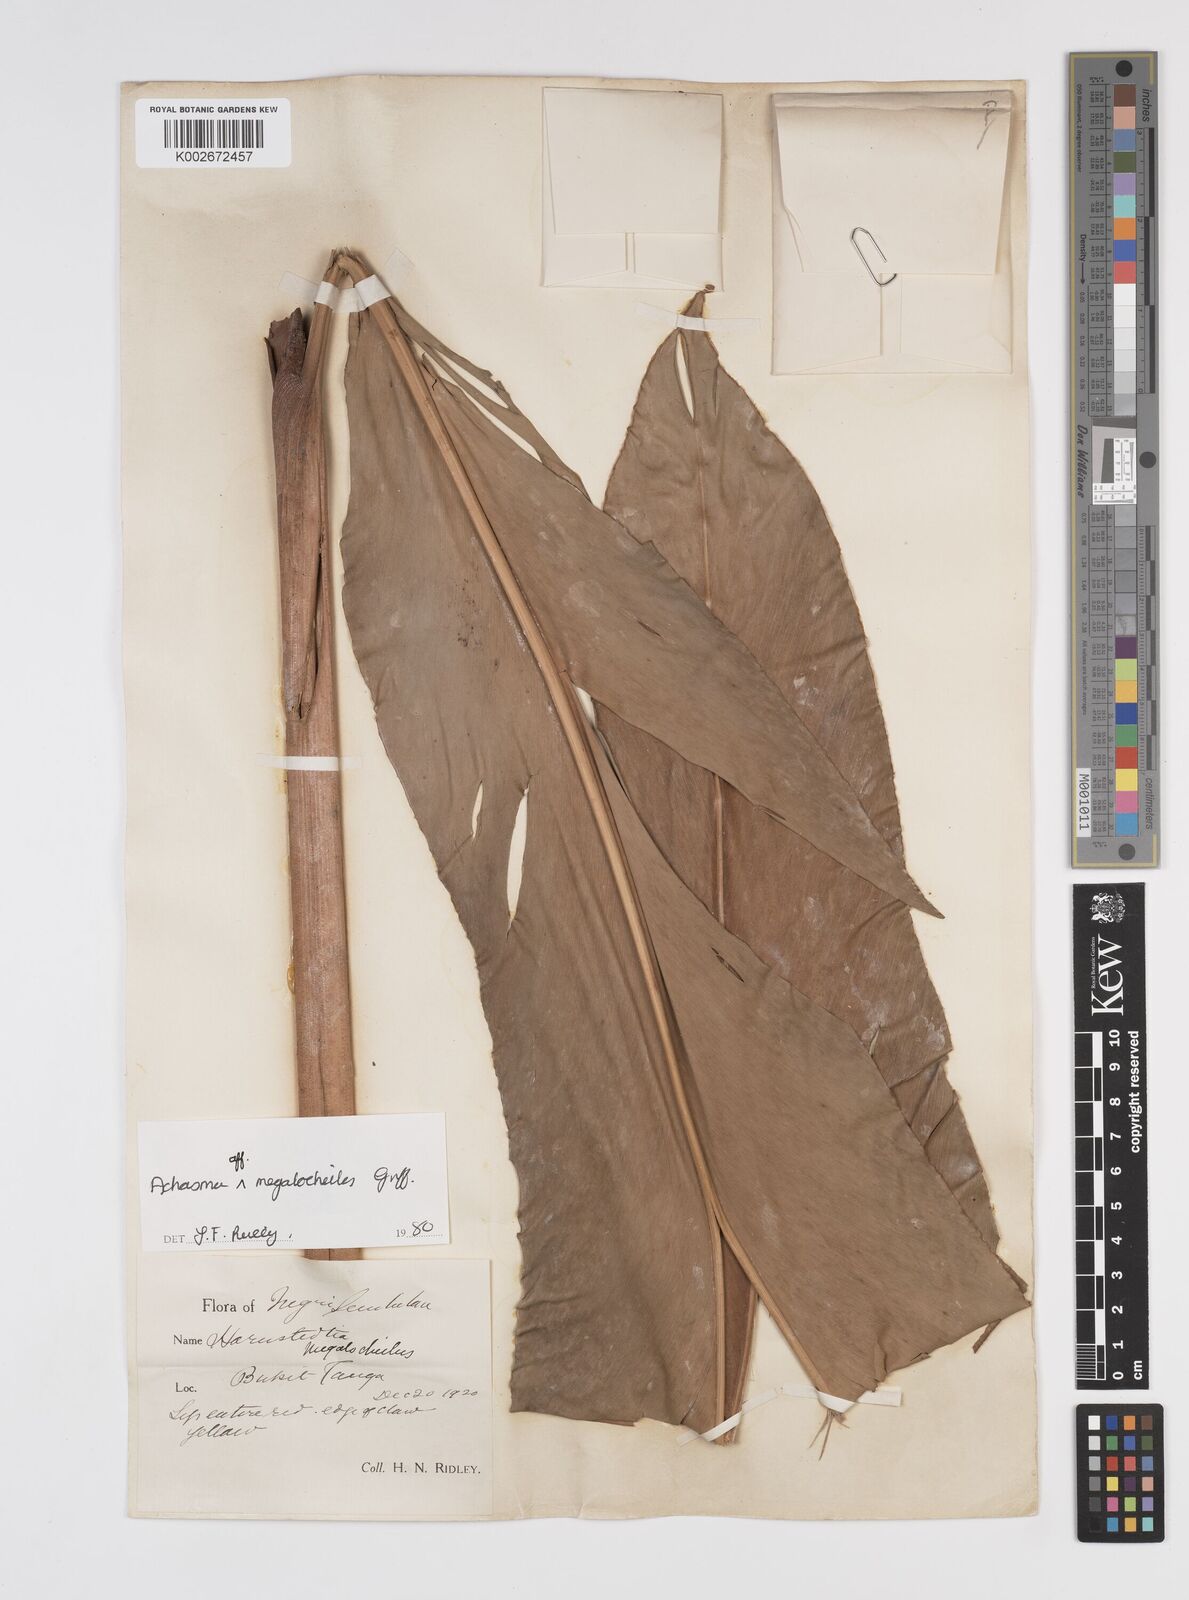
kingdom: Plantae
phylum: Tracheophyta
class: Liliopsida
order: Zingiberales
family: Zingiberaceae
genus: Etlingera
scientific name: Etlingera littoralis
